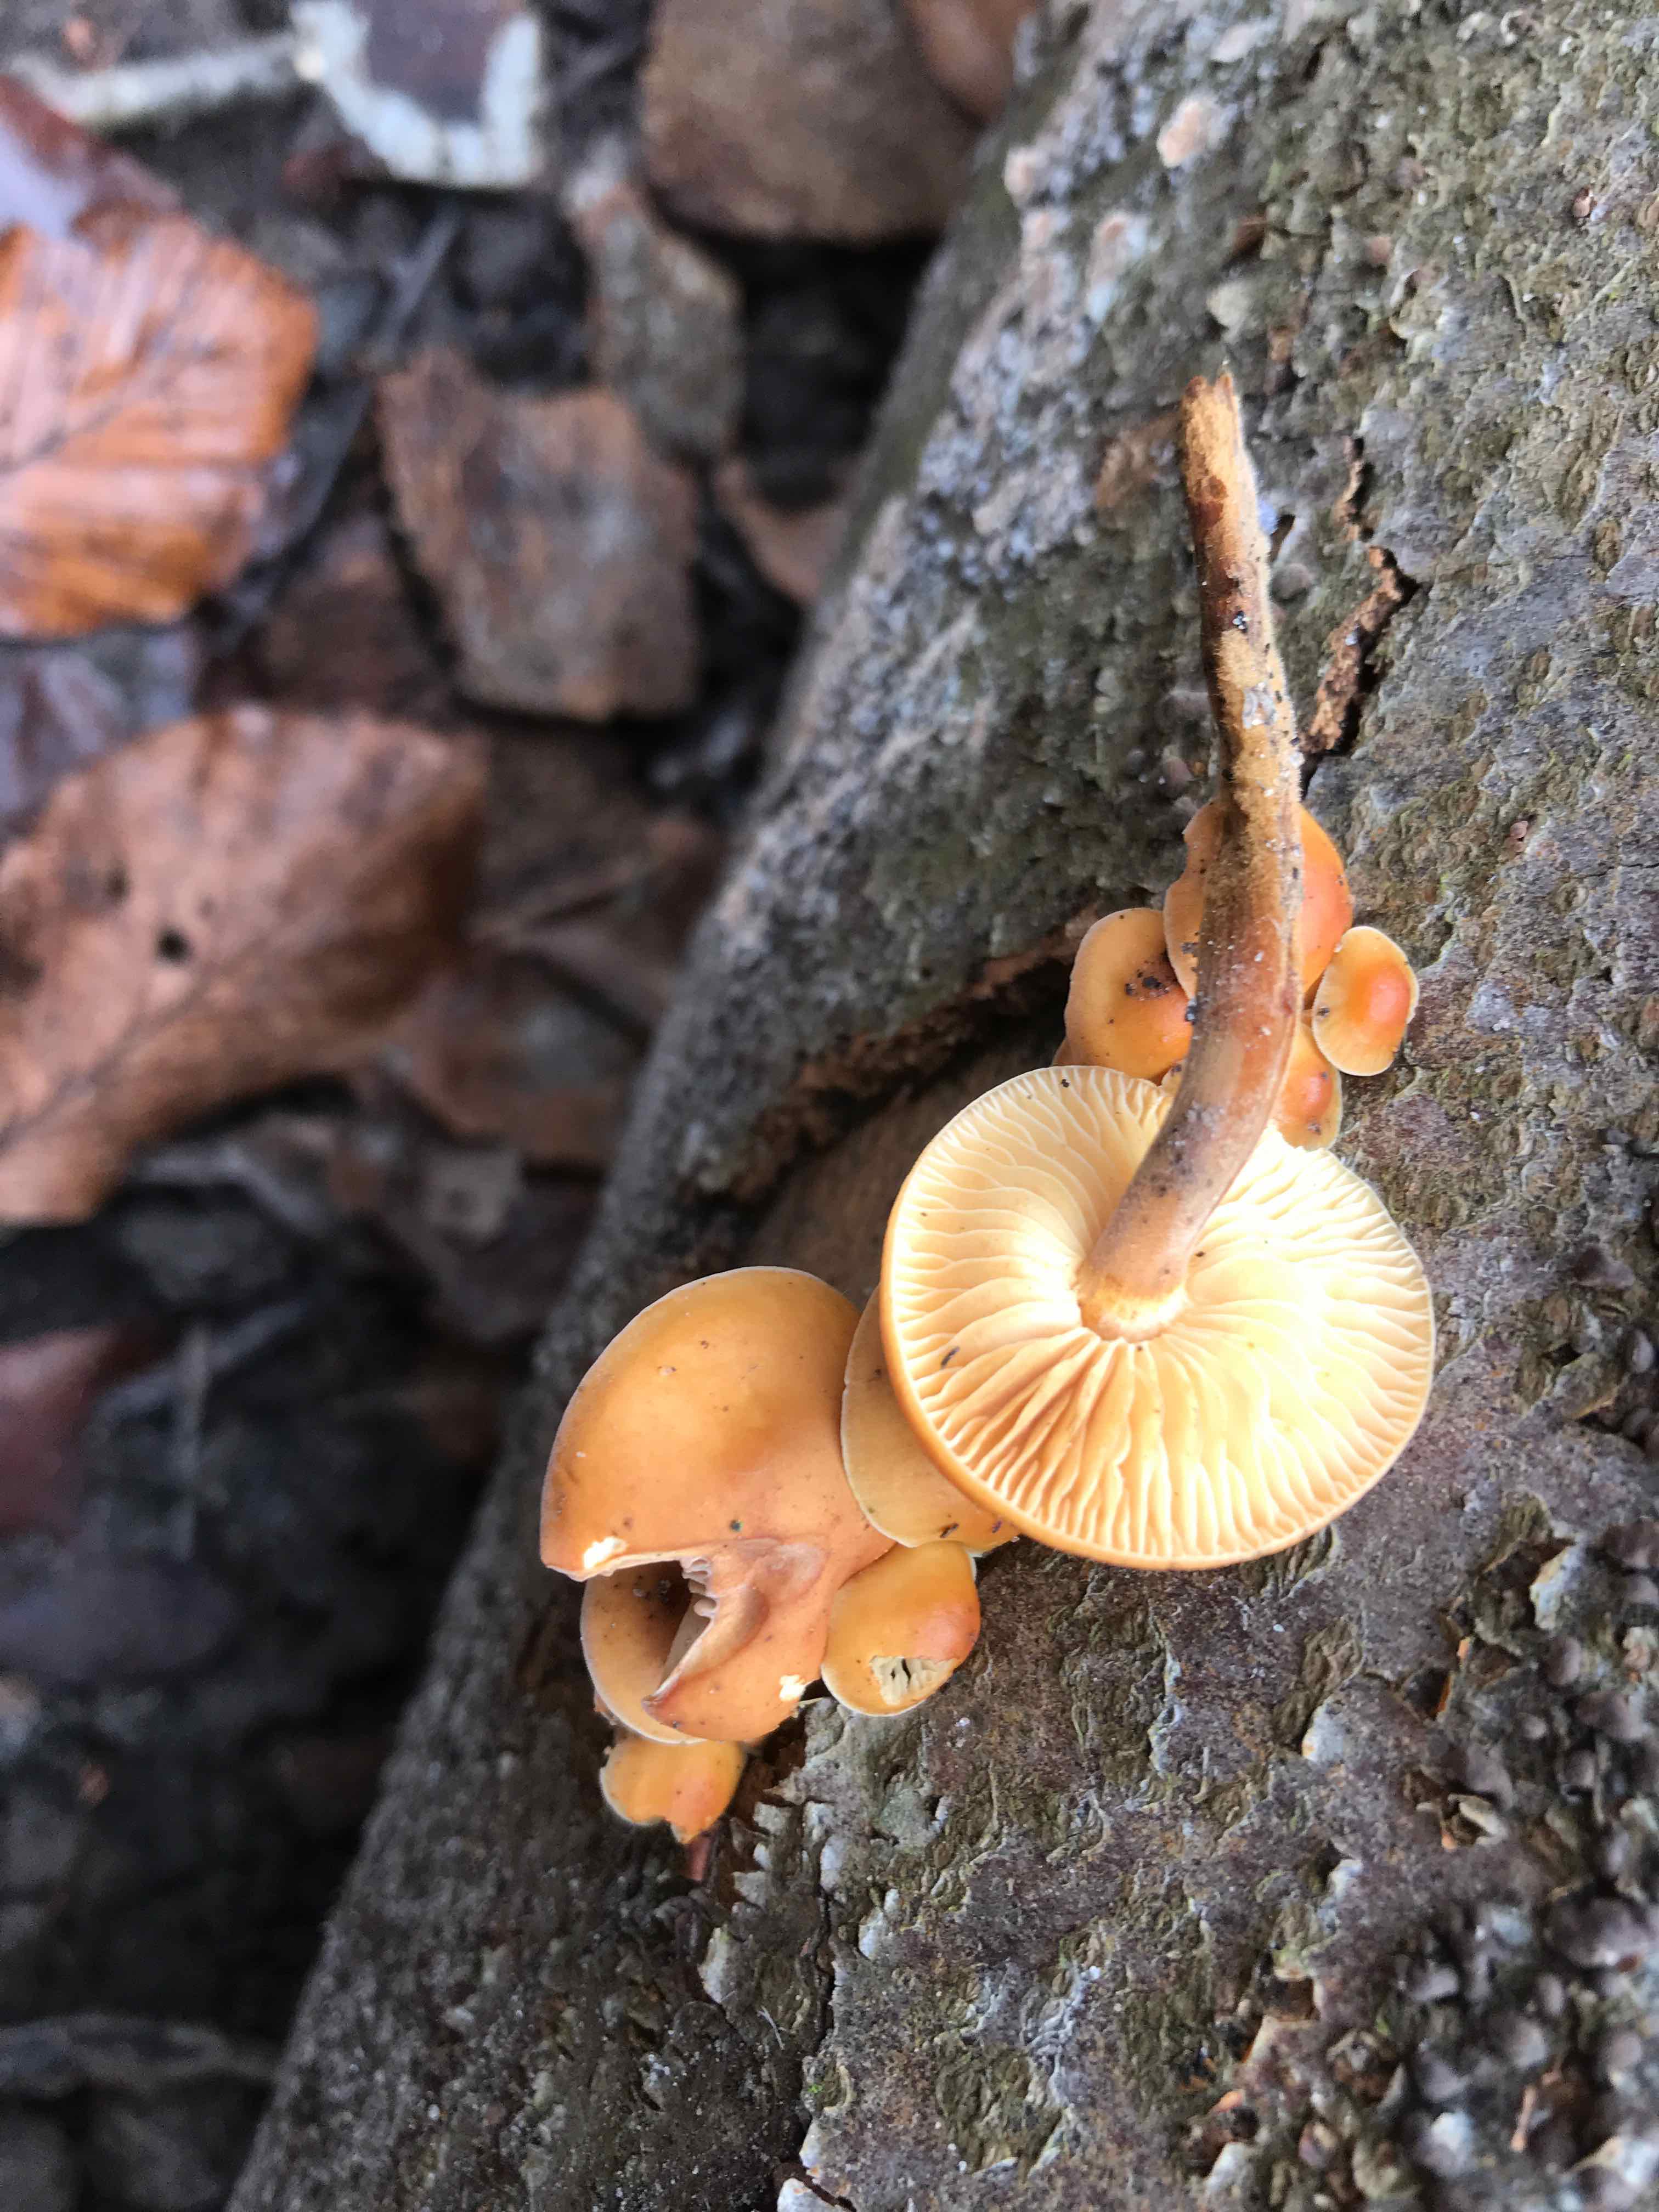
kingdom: Fungi
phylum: Basidiomycota
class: Agaricomycetes
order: Agaricales
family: Physalacriaceae
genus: Flammulina
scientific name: Flammulina velutipes
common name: gul fløjlsfod
